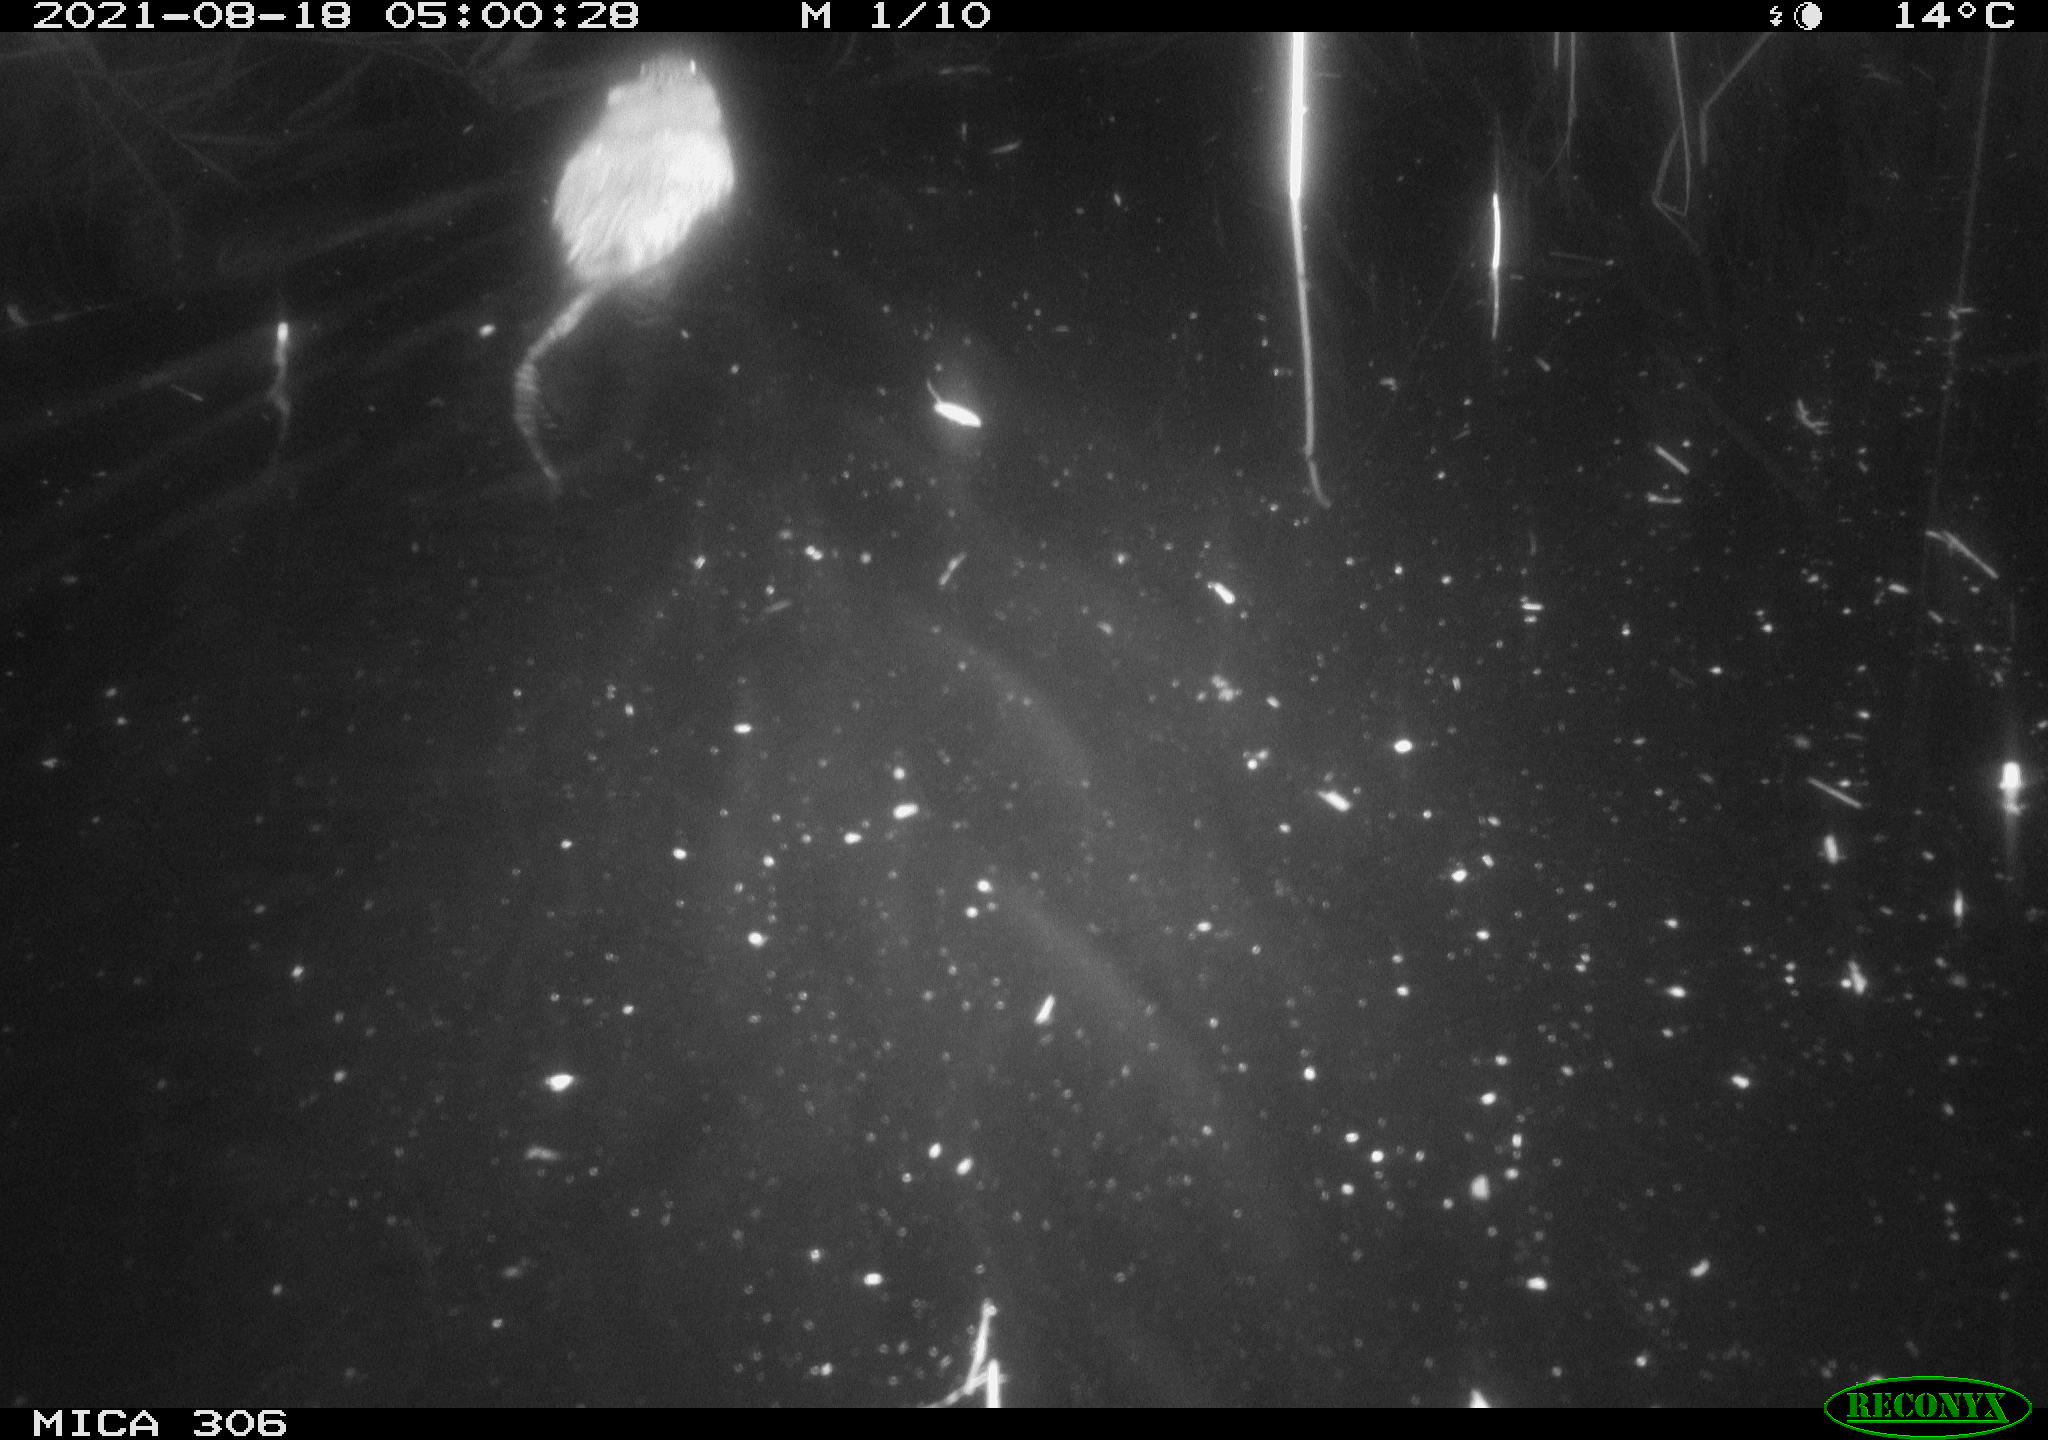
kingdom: Animalia
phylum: Chordata
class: Mammalia
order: Rodentia
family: Muridae
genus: Rattus
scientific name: Rattus norvegicus
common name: Brown rat
